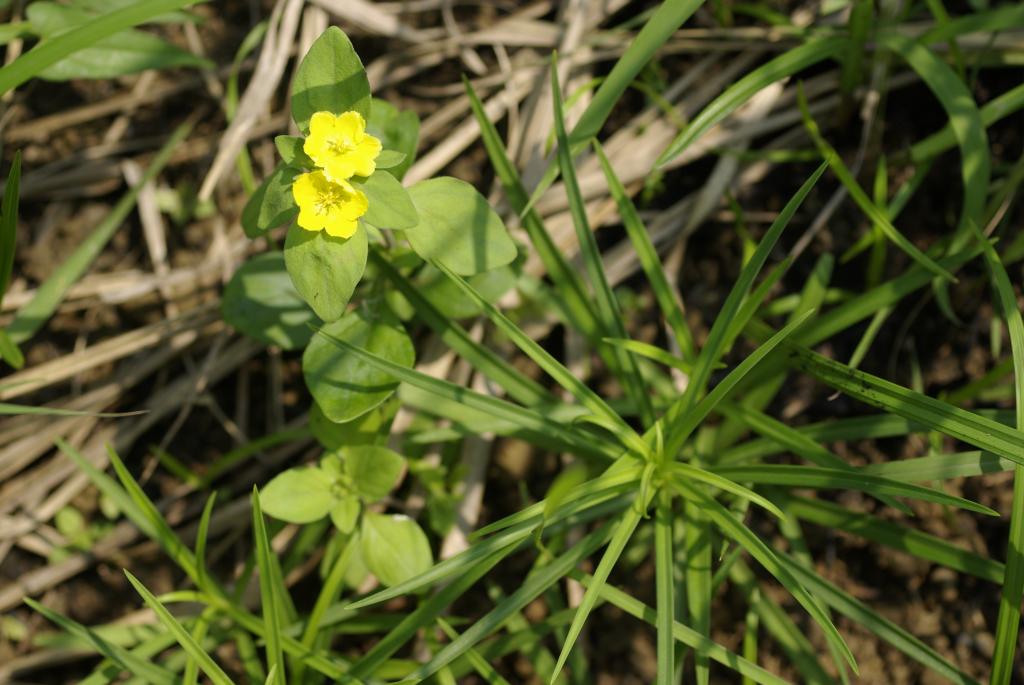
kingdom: Plantae
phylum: Tracheophyta
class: Magnoliopsida
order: Ericales
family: Primulaceae
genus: Lysimachia
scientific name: Lysimachia remota
